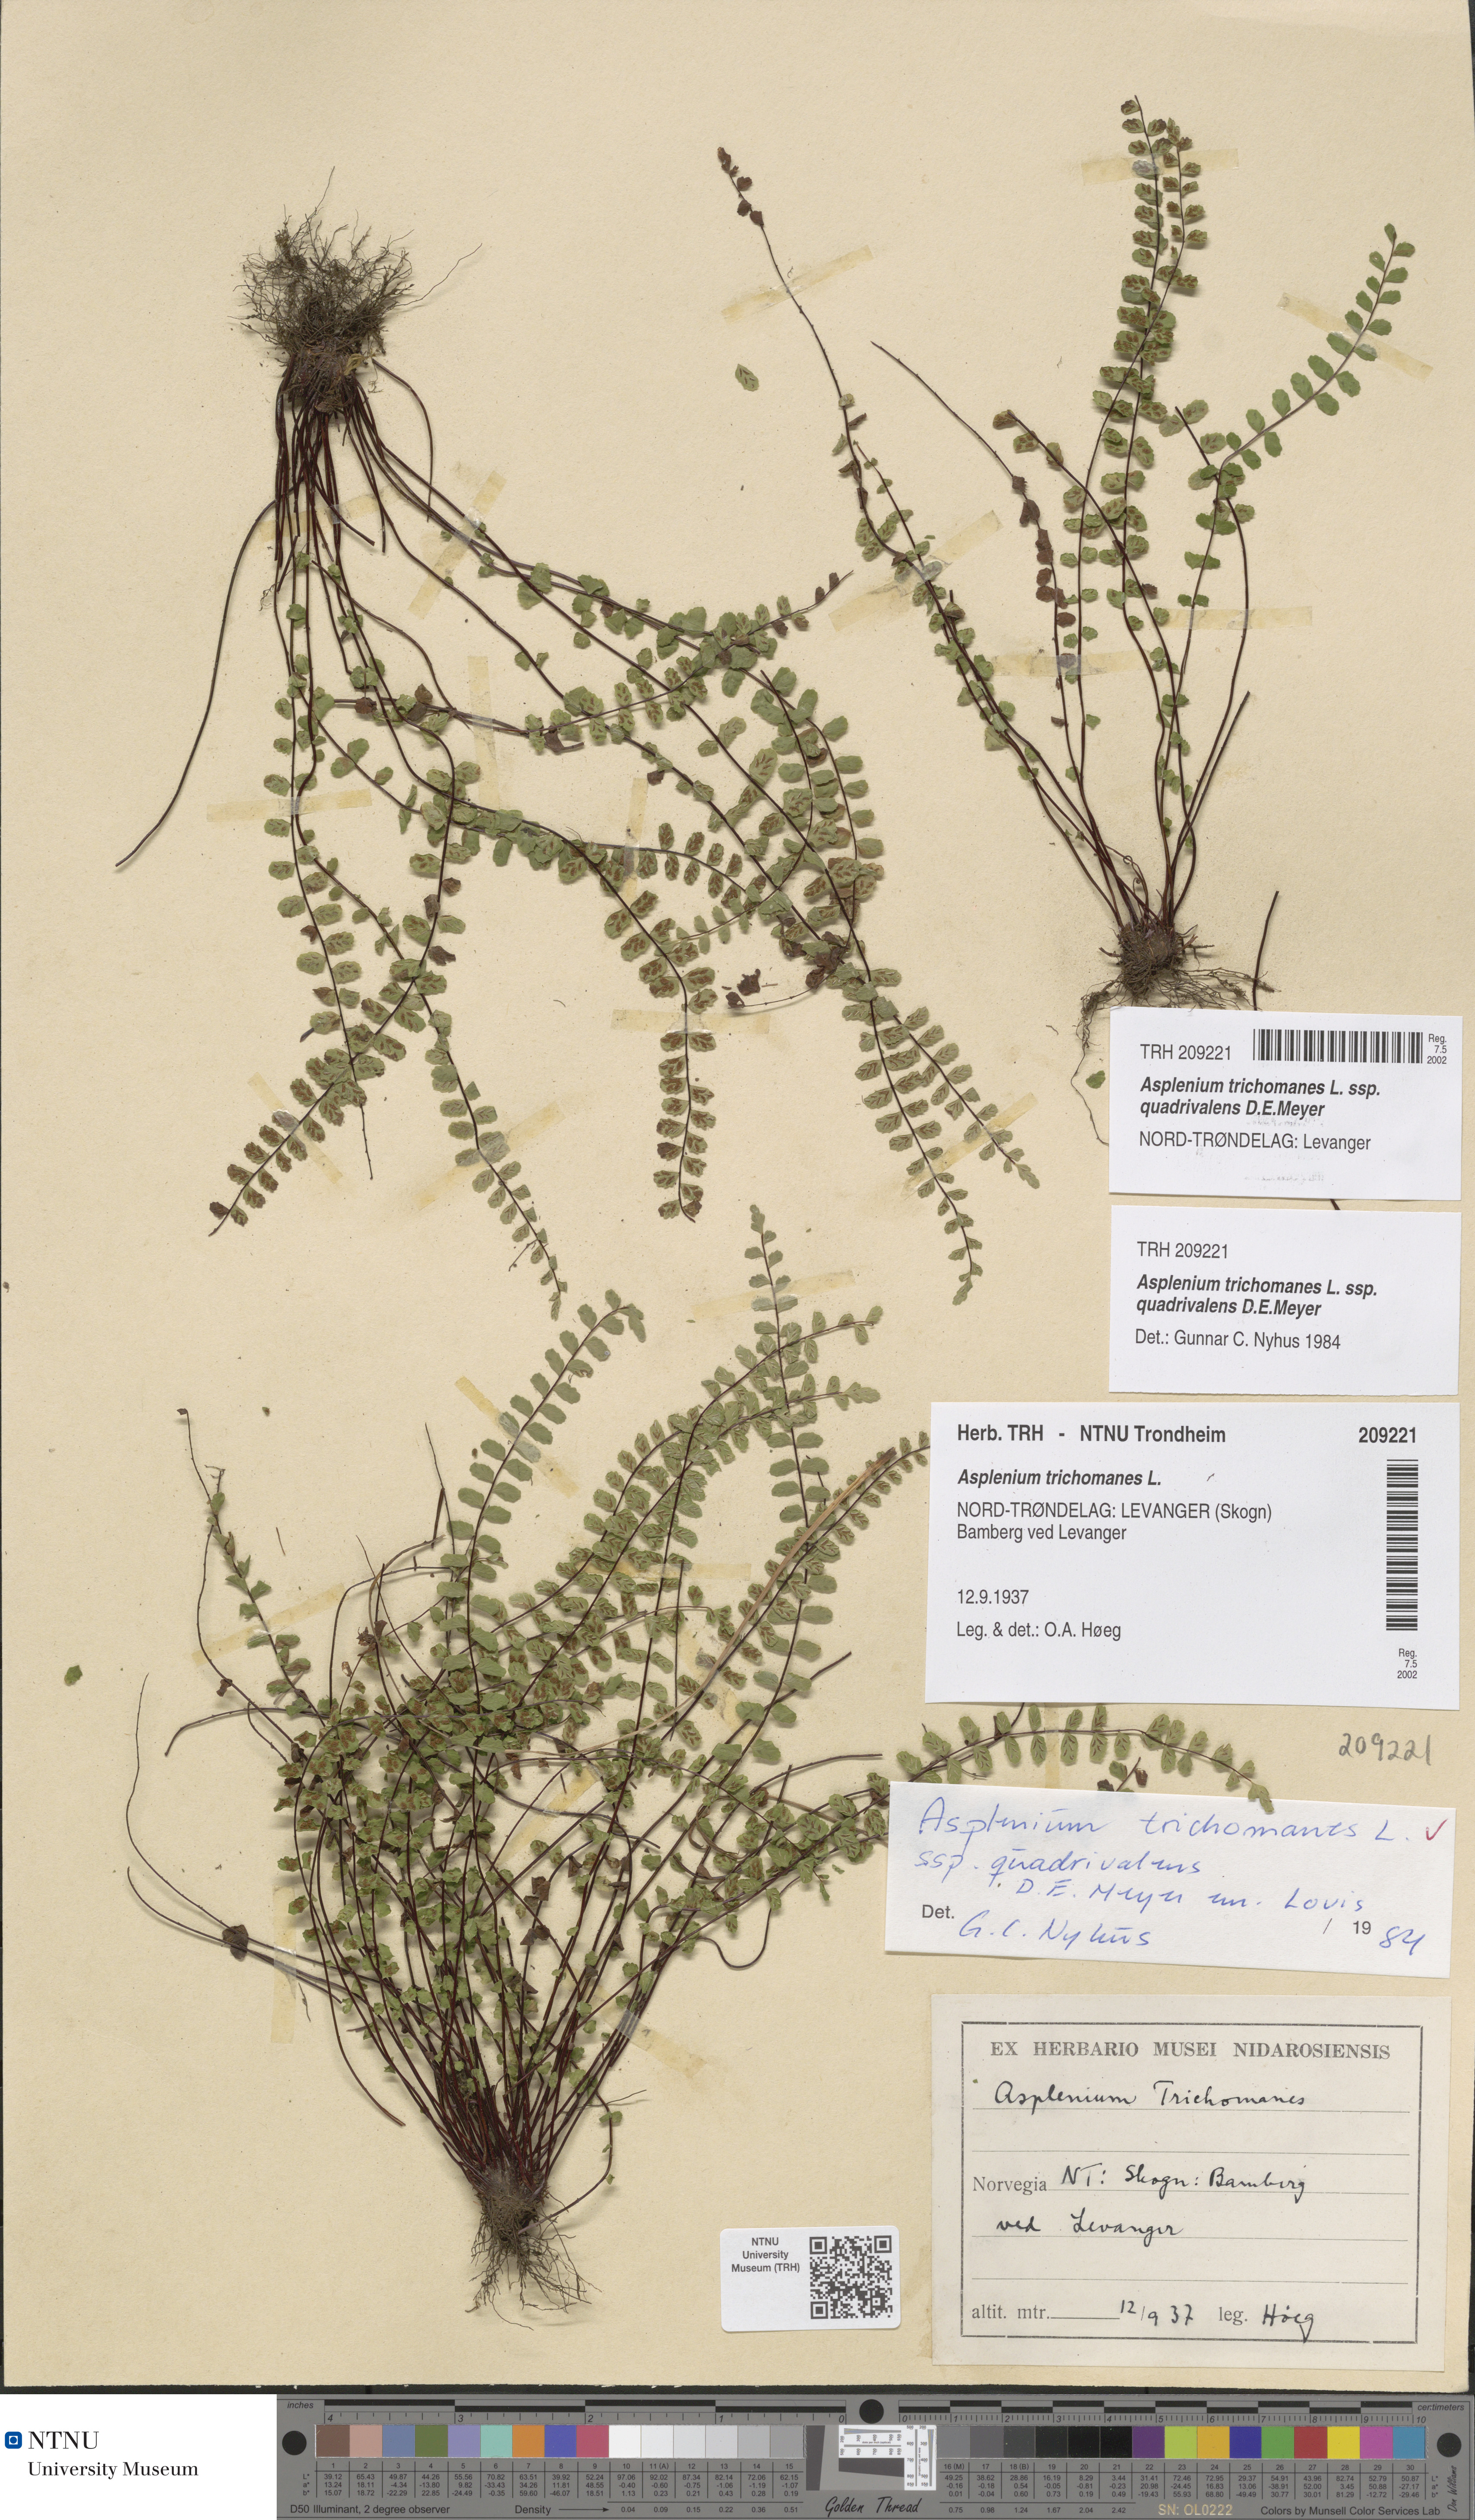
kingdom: Plantae
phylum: Tracheophyta
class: Polypodiopsida
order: Polypodiales
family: Aspleniaceae
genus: Asplenium
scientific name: Asplenium quadrivalens
